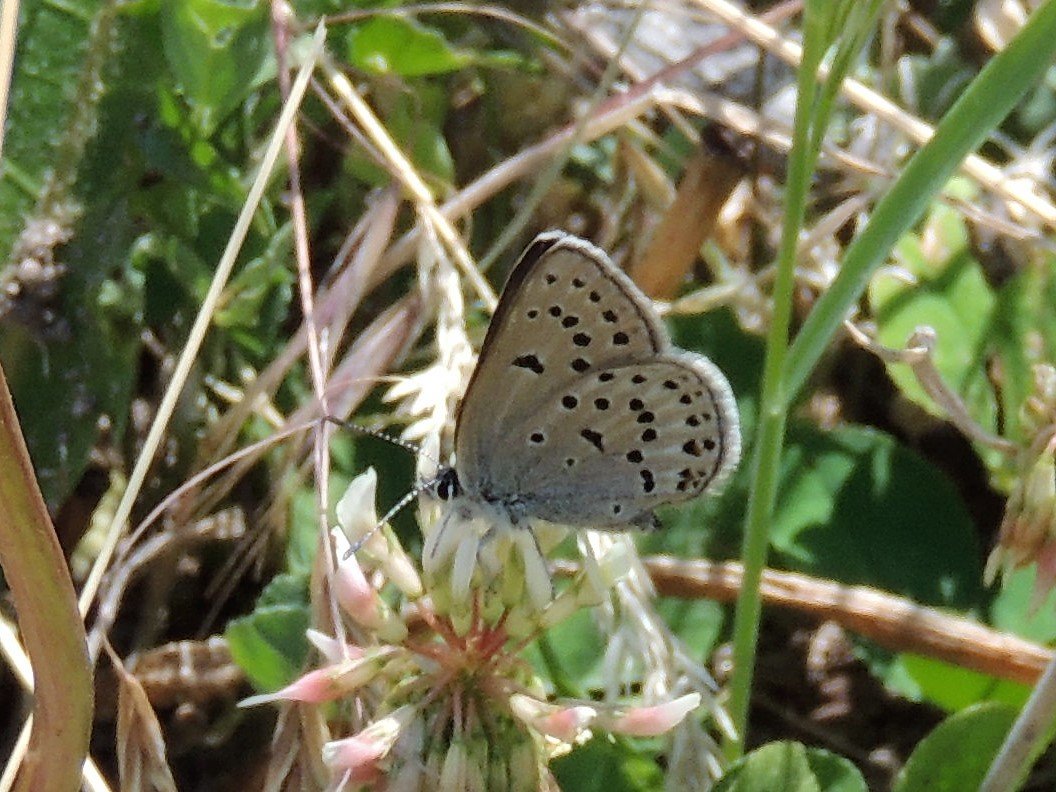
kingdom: Animalia
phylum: Arthropoda
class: Insecta
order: Lepidoptera
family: Lycaenidae
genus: Plebejus
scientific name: Plebejus saepiolus
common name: Greenish Blue
